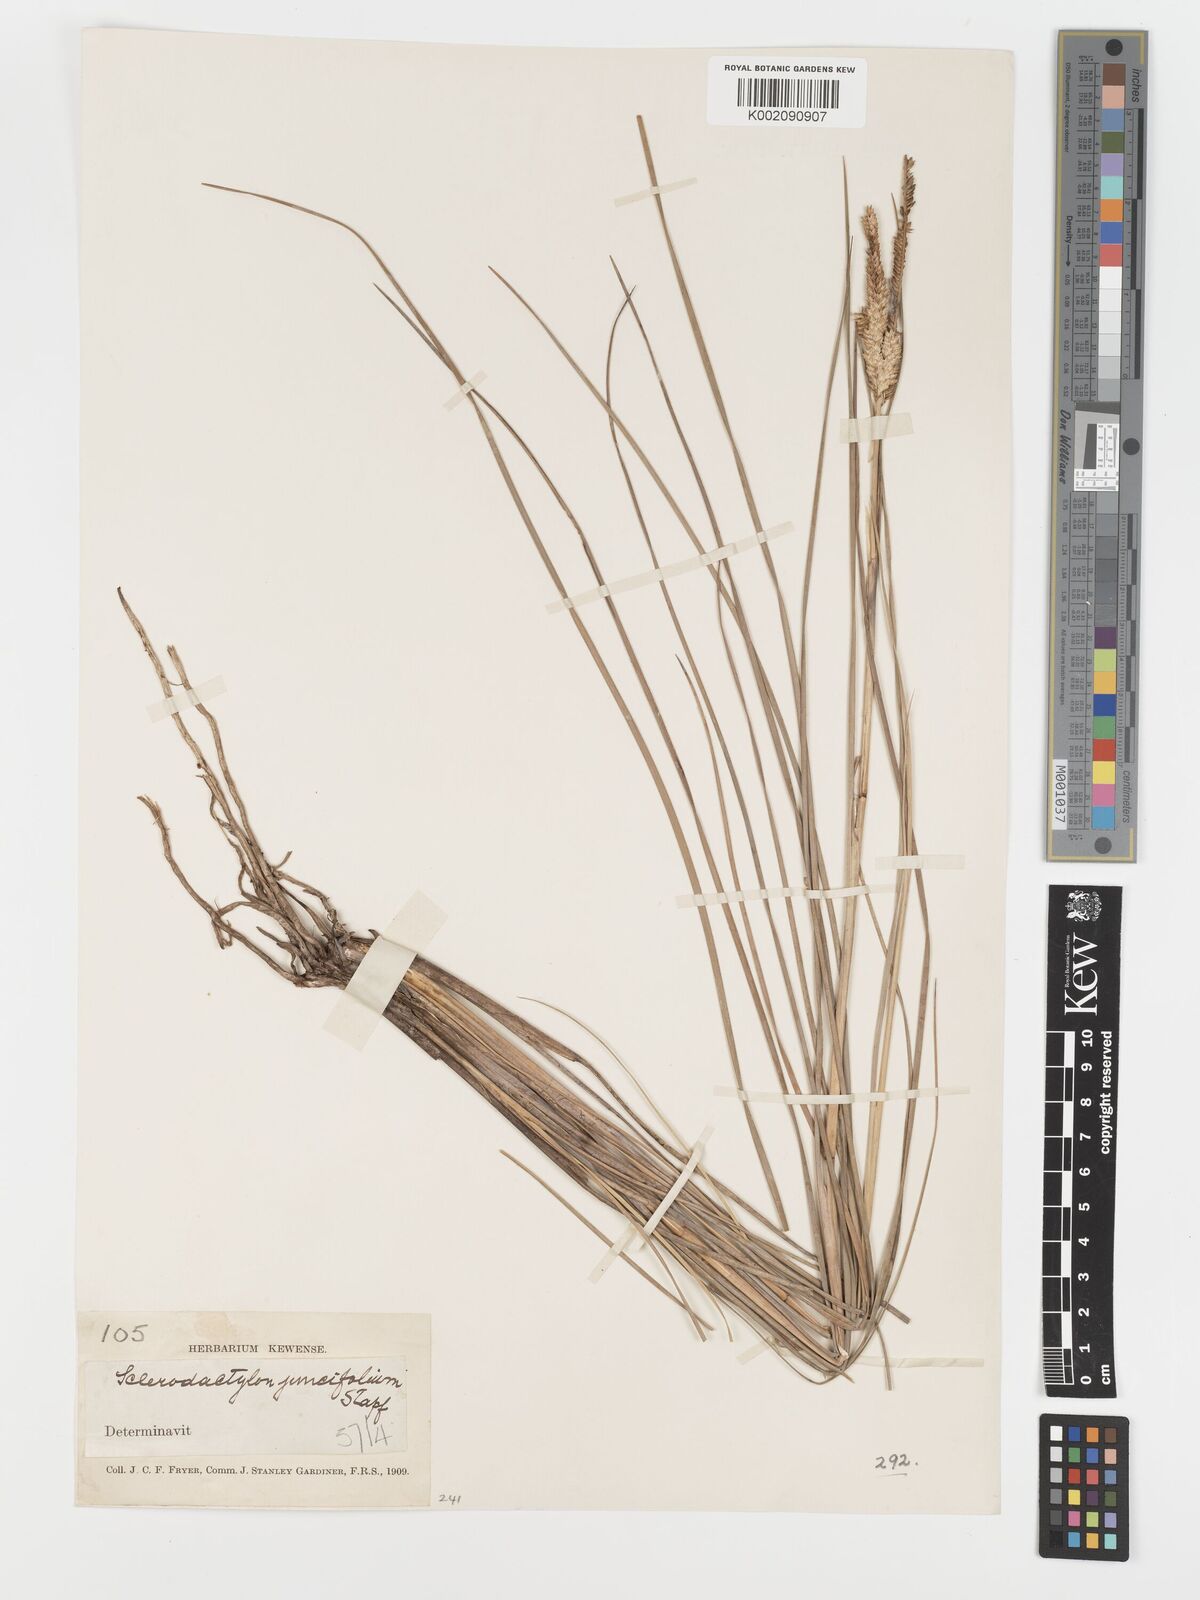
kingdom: Plantae
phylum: Tracheophyta
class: Liliopsida
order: Poales
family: Poaceae
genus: Sclerodactylon
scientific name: Sclerodactylon macrostachyum
